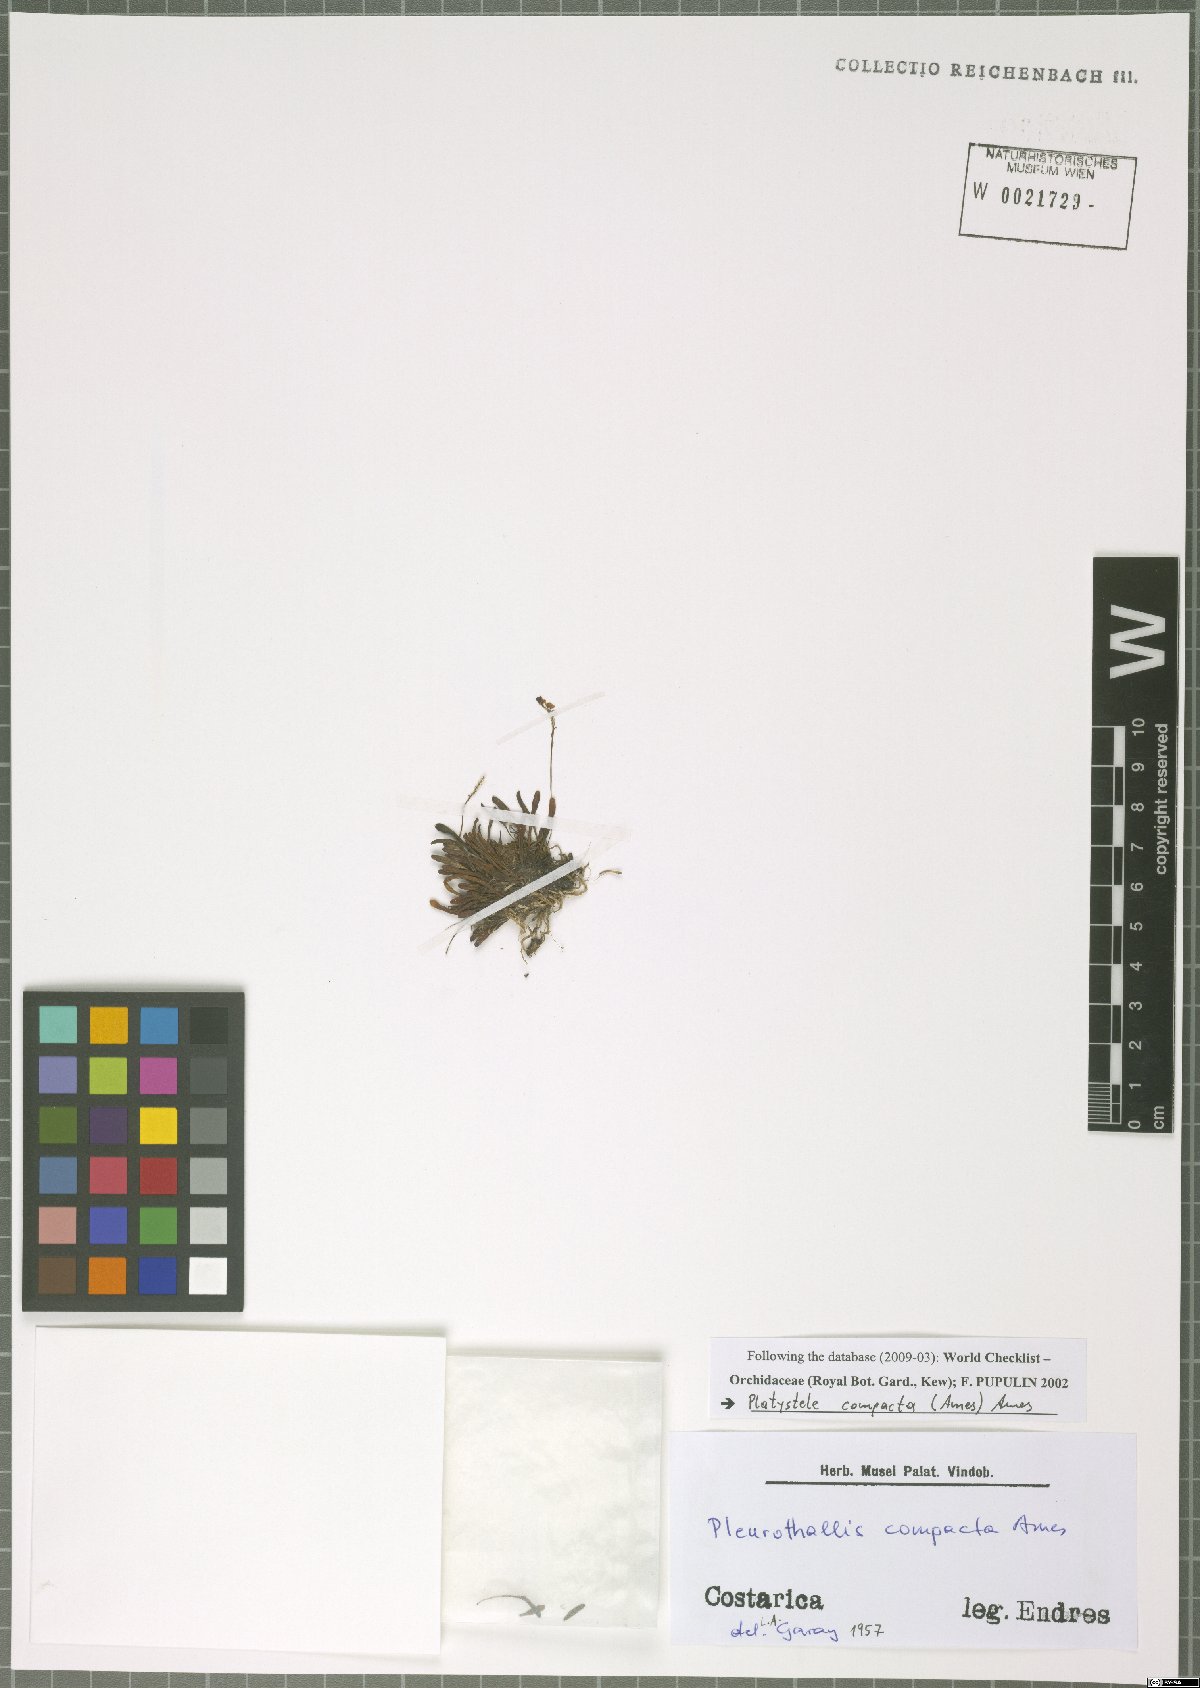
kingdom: Plantae
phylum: Tracheophyta
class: Liliopsida
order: Asparagales
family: Orchidaceae
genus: Platystele
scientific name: Platystele compacta
